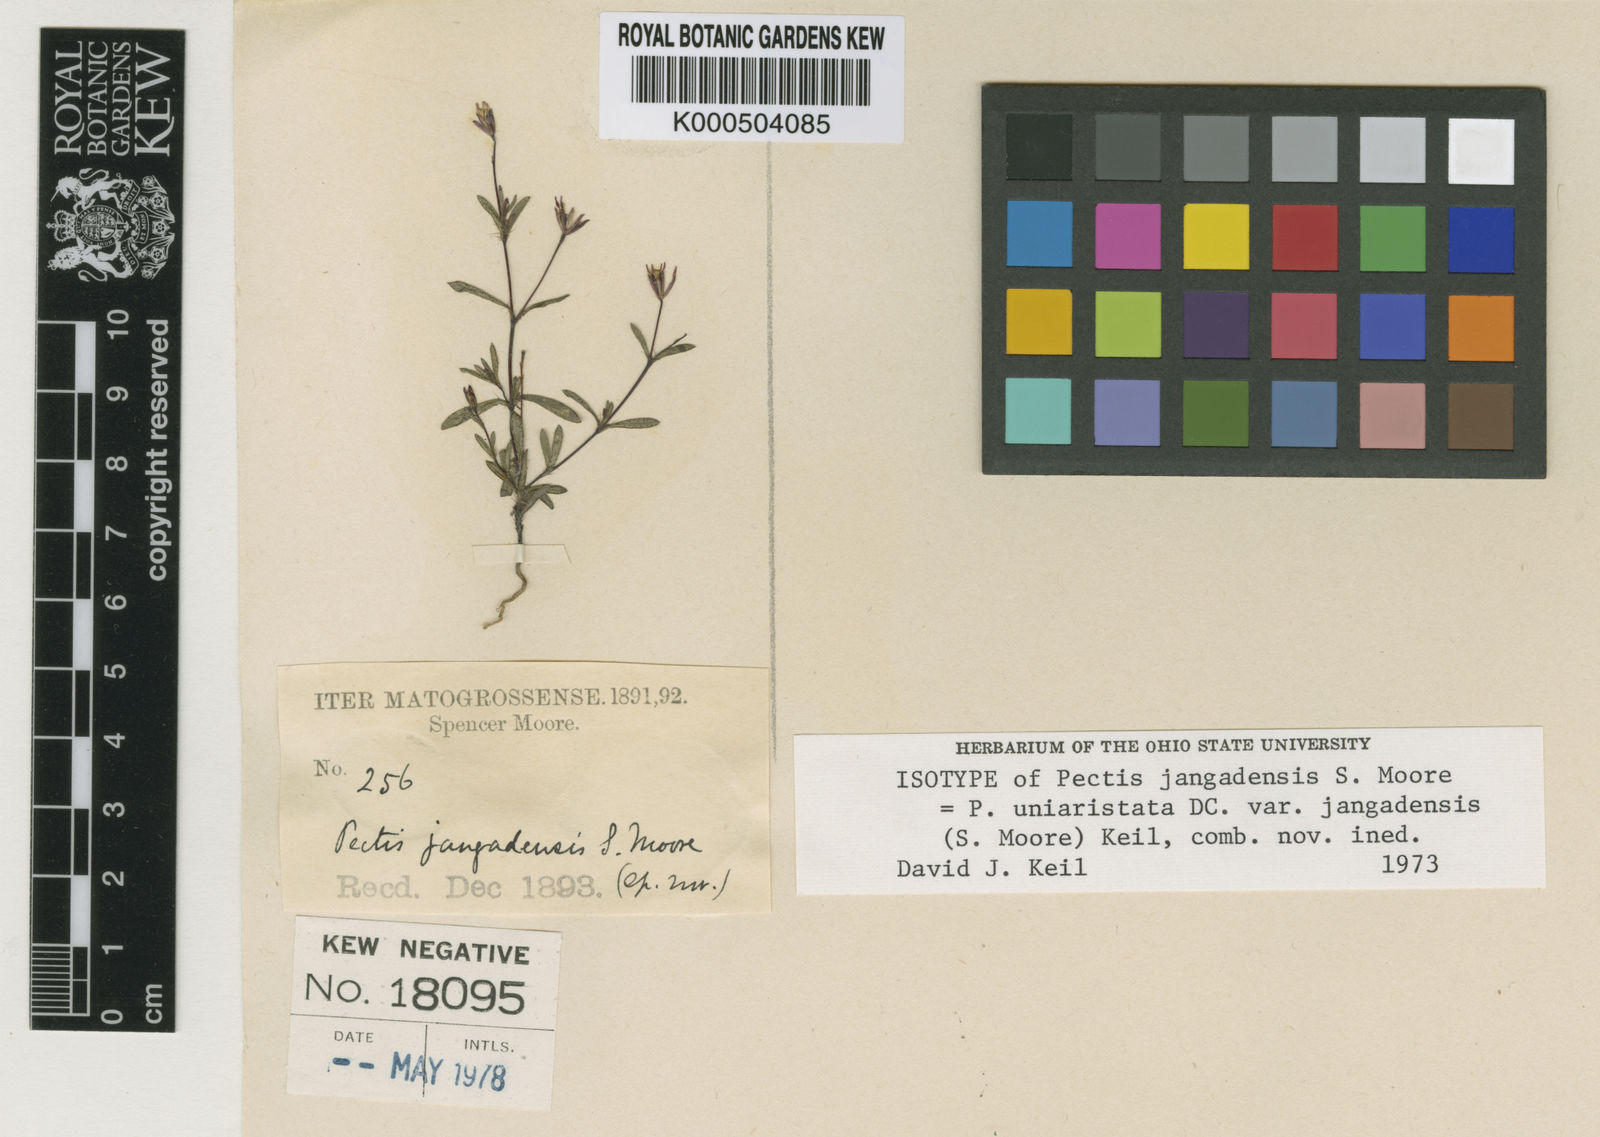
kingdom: Plantae
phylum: Tracheophyta
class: Magnoliopsida
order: Asterales
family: Asteraceae
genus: Pectis
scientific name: Pectis uniaristata
